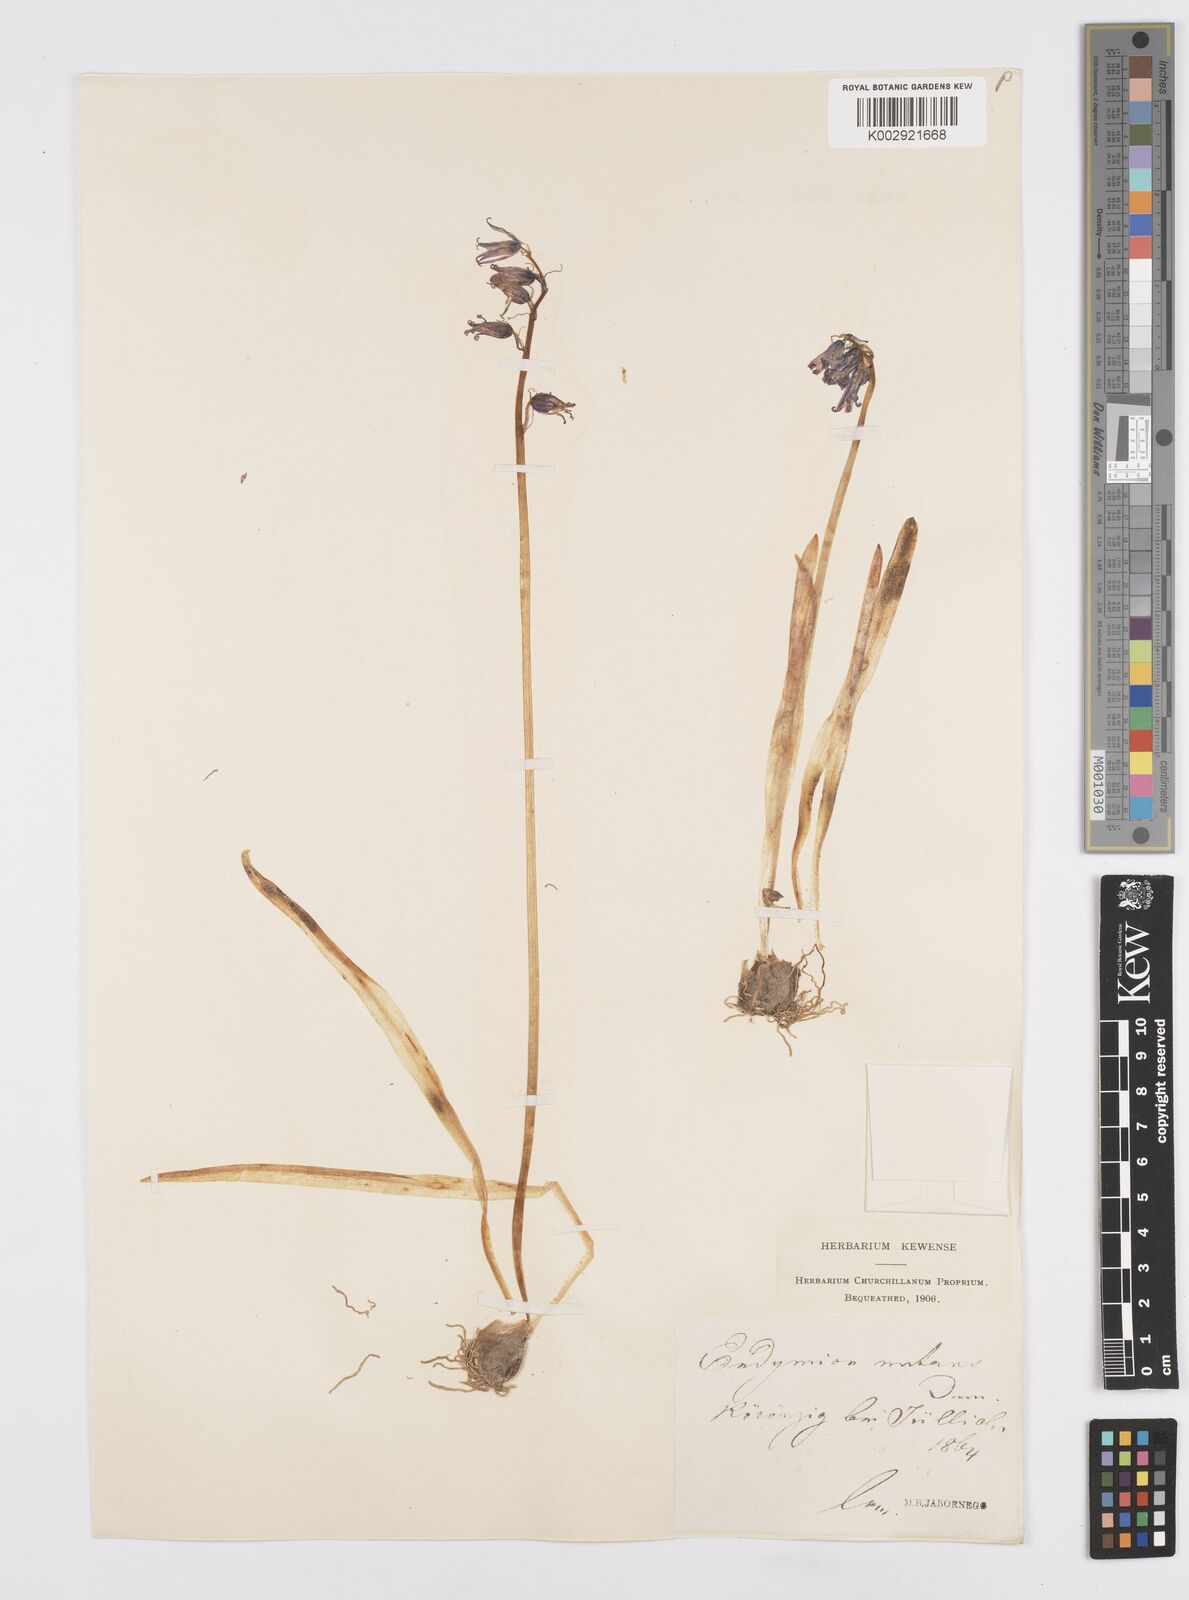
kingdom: Plantae
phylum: Tracheophyta
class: Liliopsida
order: Asparagales
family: Asparagaceae
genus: Hyacinthoides
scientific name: Hyacinthoides non-scripta
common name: Bluebell
